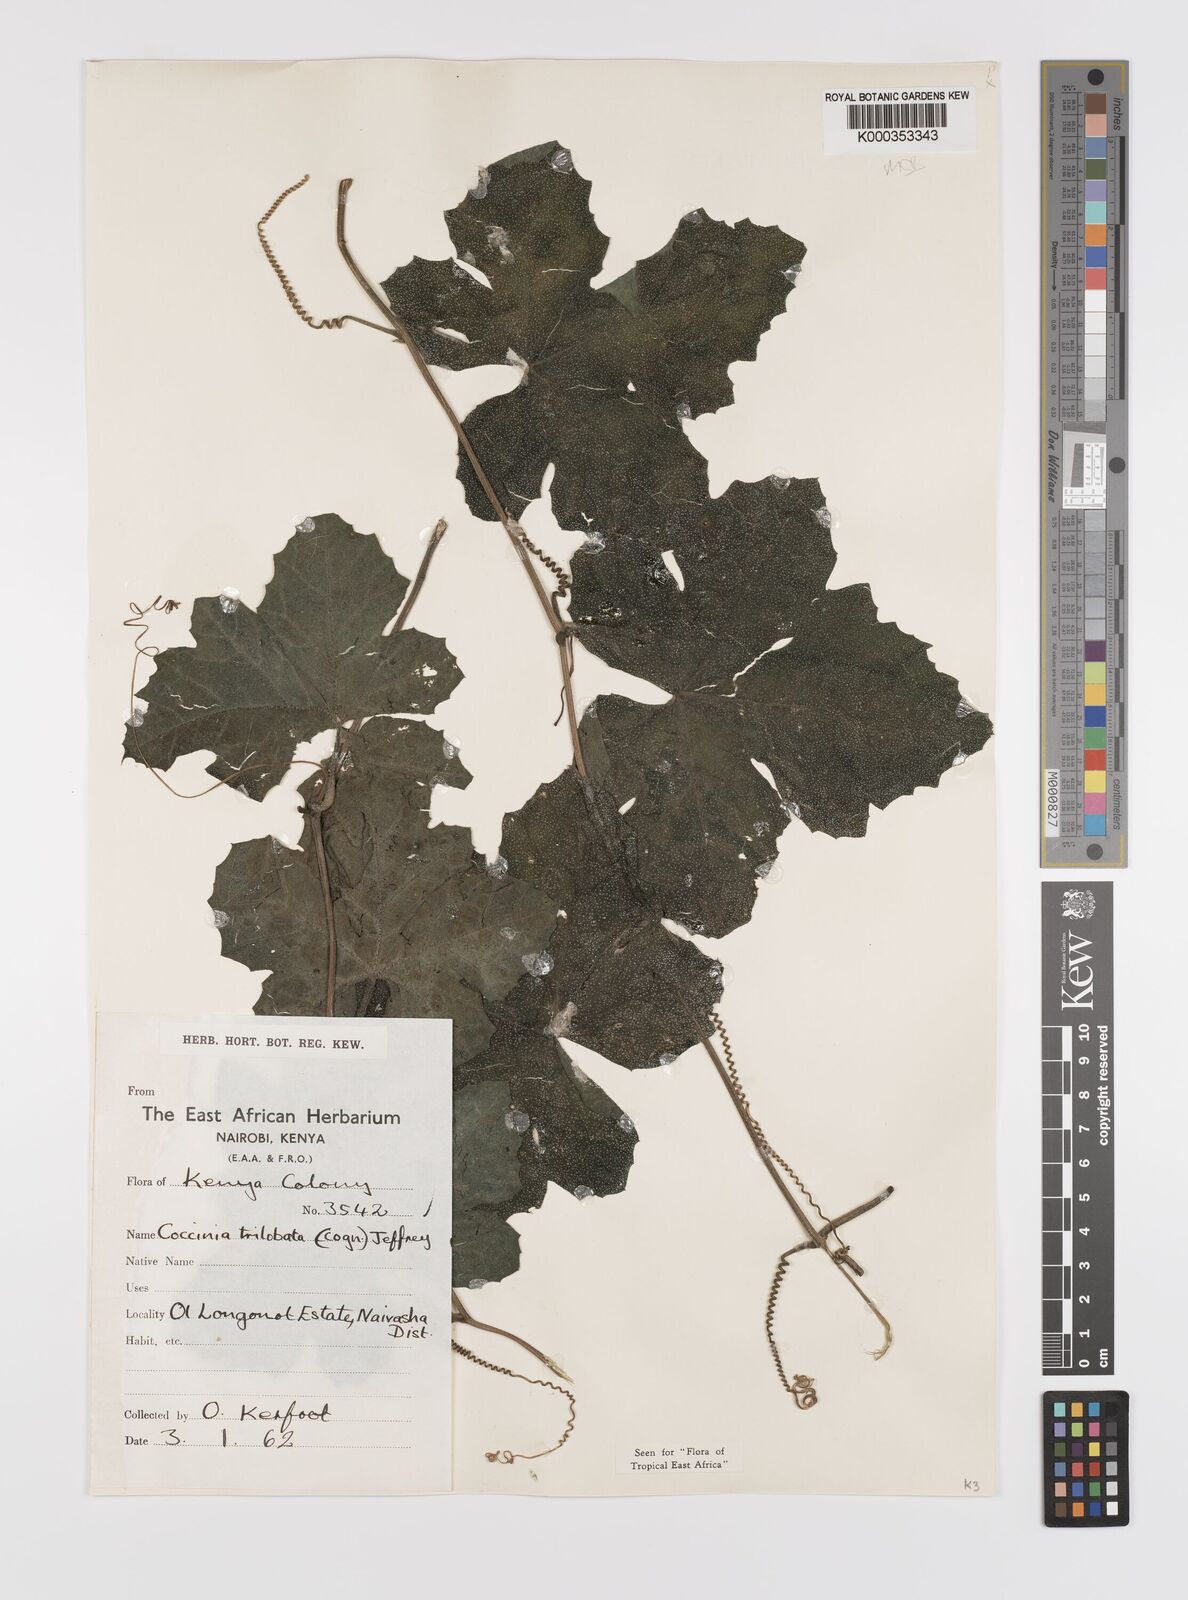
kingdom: Plantae
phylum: Tracheophyta
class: Magnoliopsida
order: Cucurbitales
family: Cucurbitaceae
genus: Coccinia
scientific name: Coccinia trilobata
